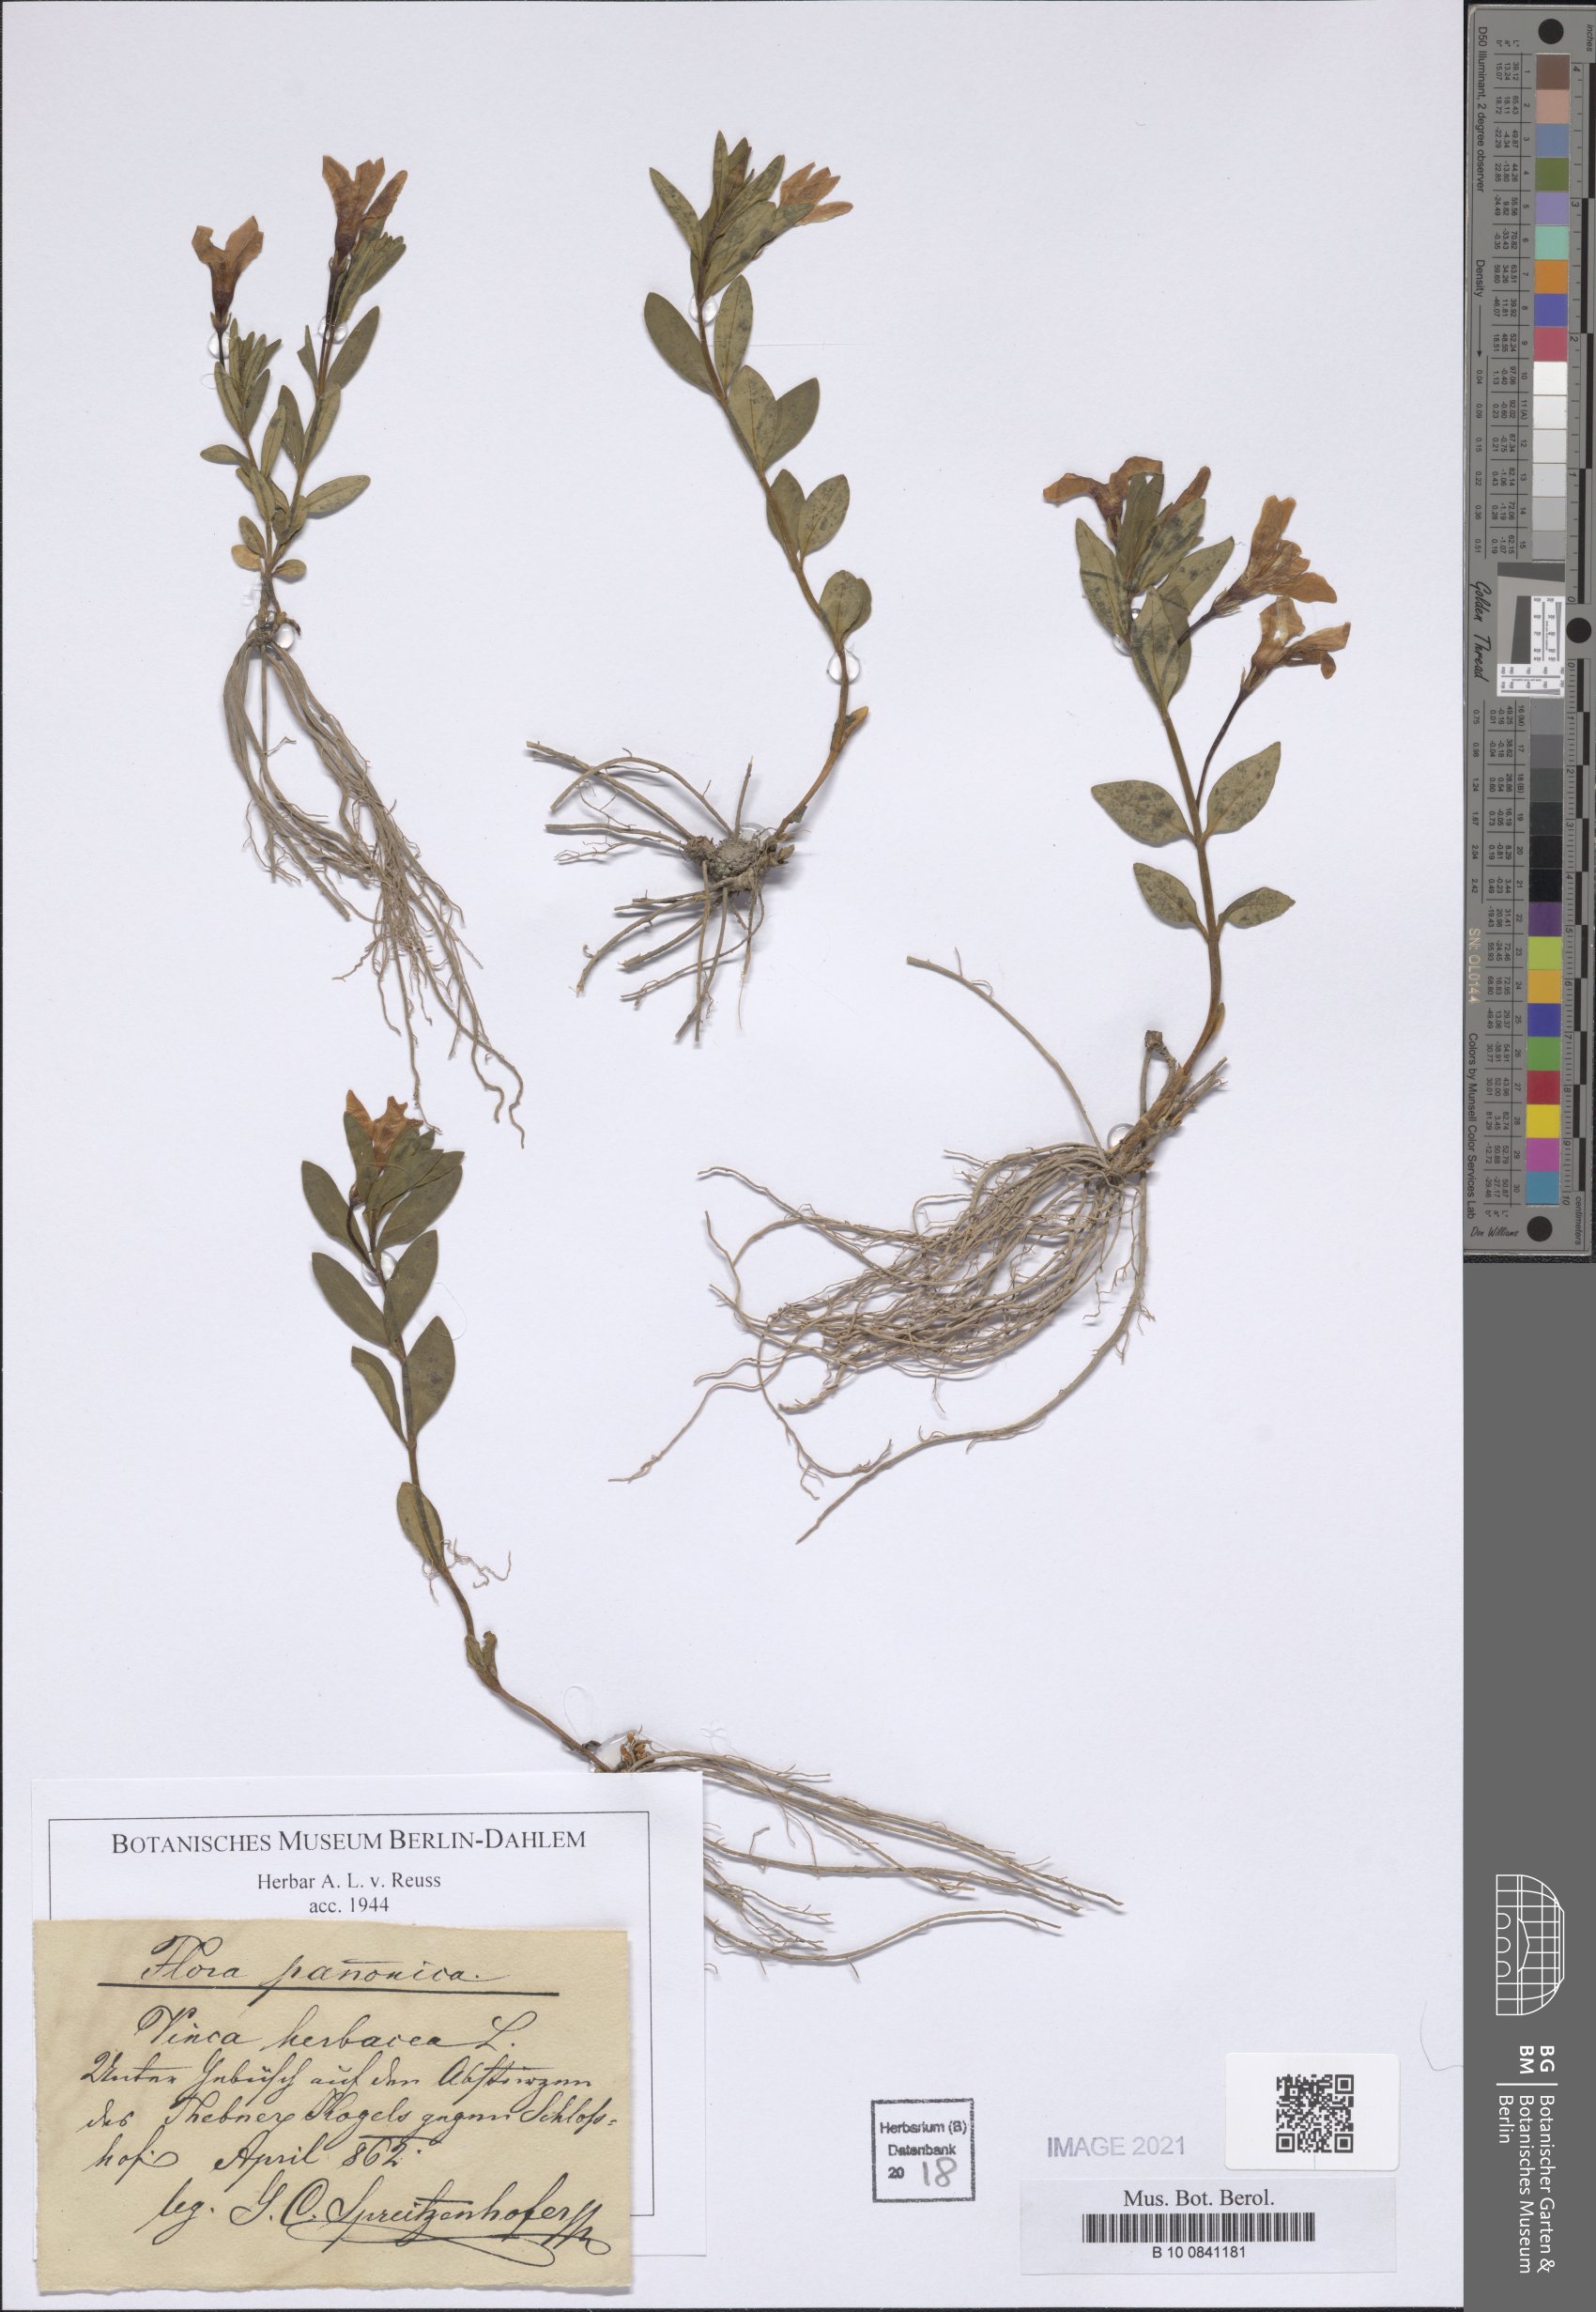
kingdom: Plantae
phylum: Tracheophyta
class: Magnoliopsida
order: Gentianales
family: Apocynaceae
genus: Vinca
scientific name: Vinca herbacea
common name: Herbaceous periwinkle
